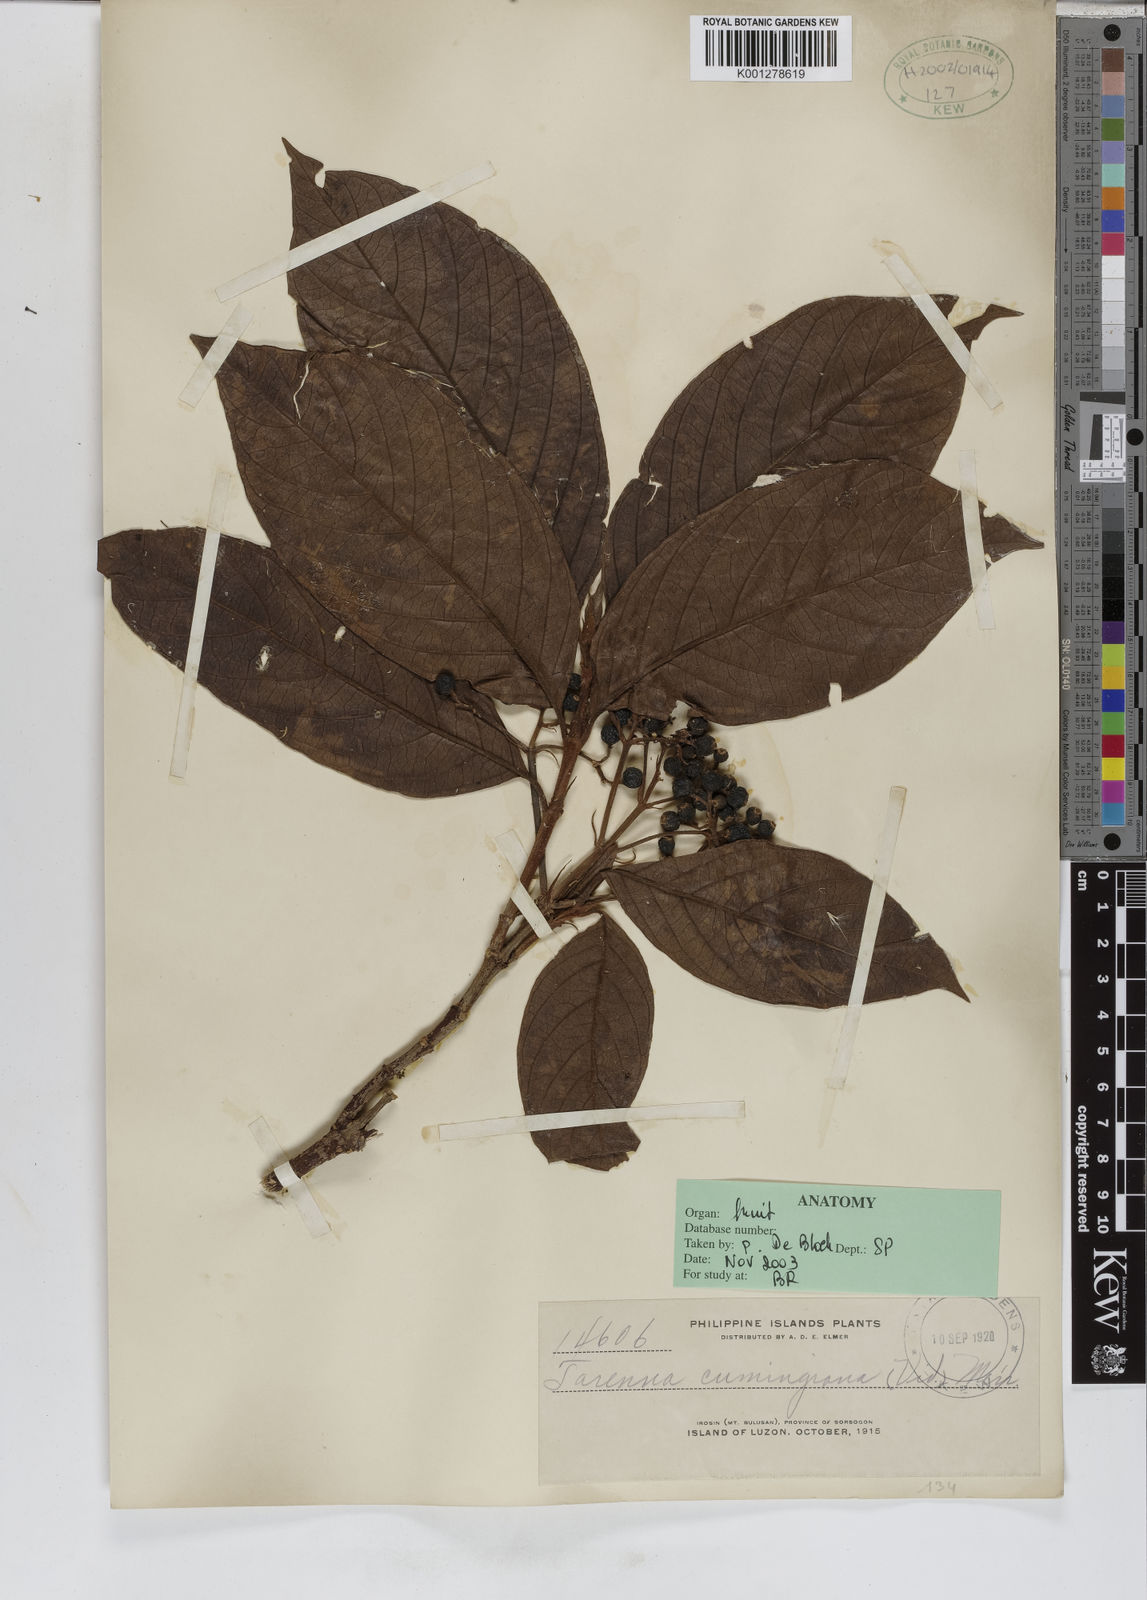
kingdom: Plantae
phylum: Tracheophyta
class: Magnoliopsida
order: Gentianales
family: Rubiaceae
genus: Tarenna
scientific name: Tarenna cumingiana
